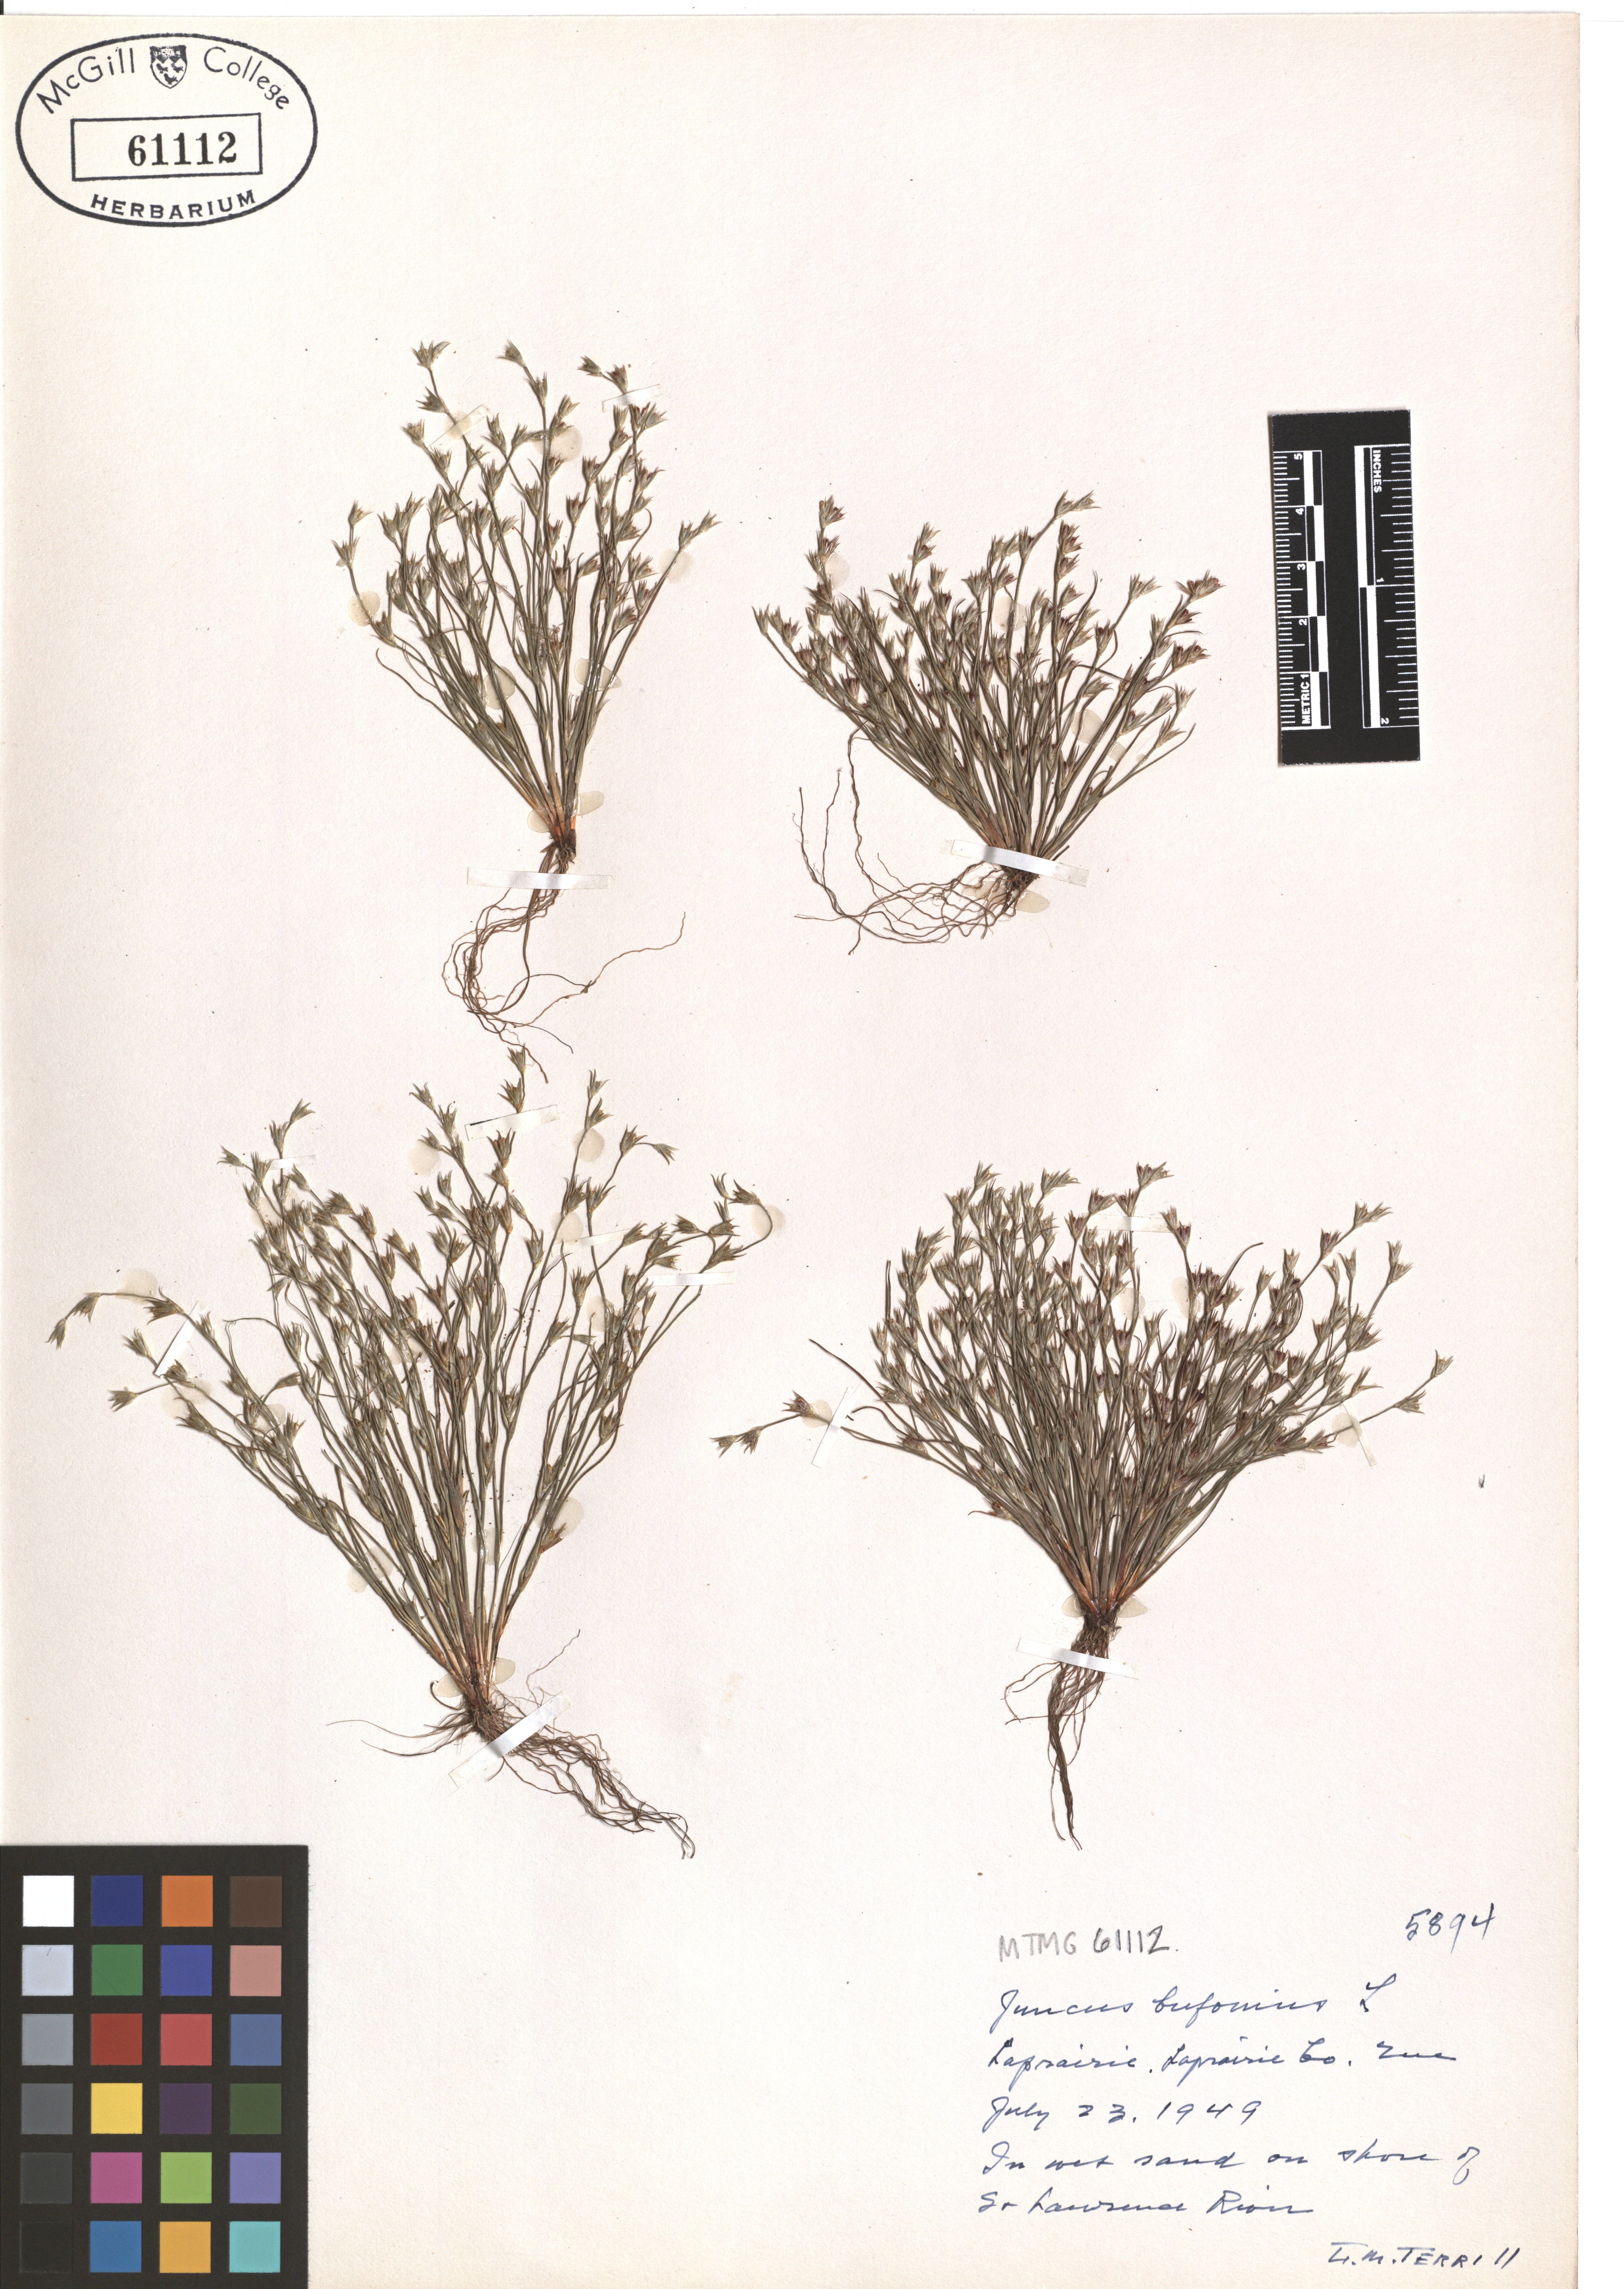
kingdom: Plantae
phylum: Tracheophyta
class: Liliopsida
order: Poales
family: Juncaceae
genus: Juncus
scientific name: Juncus bufonius
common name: Toad rush
